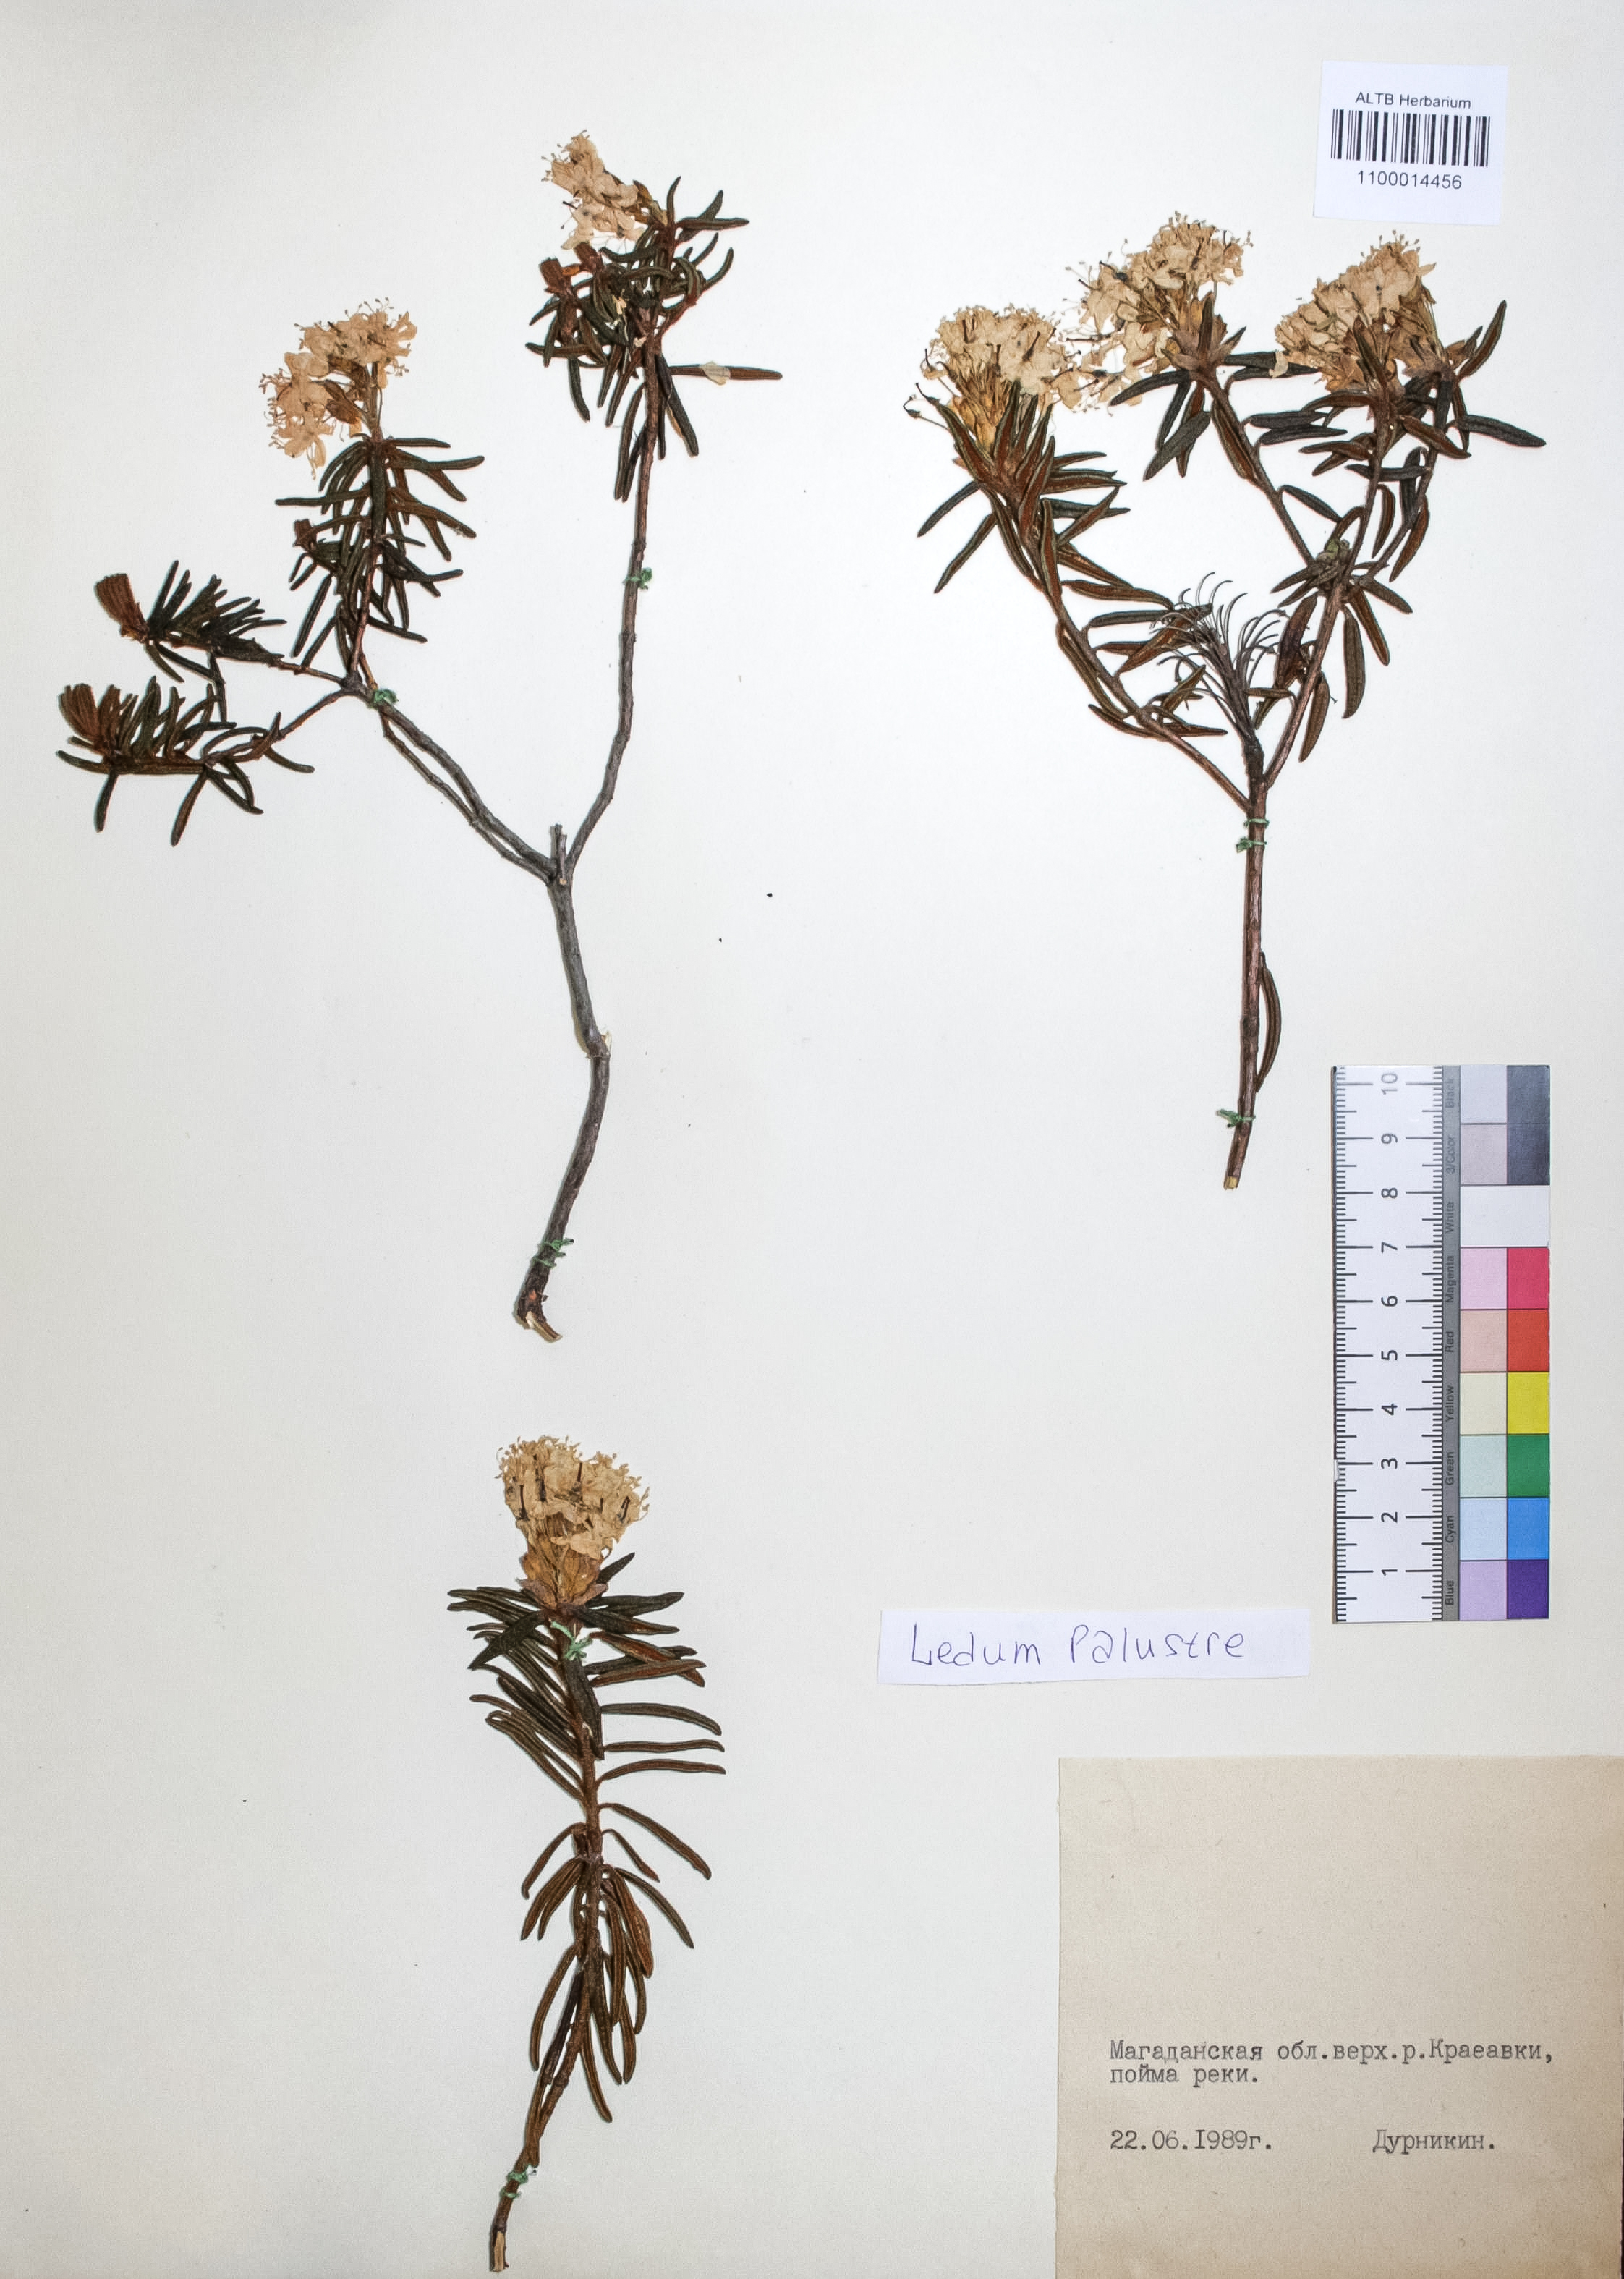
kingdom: Plantae
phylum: Tracheophyta
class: Magnoliopsida
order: Ericales
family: Ericaceae
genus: Rhododendron
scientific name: Rhododendron tomentosum
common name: Marsh labrador tea
